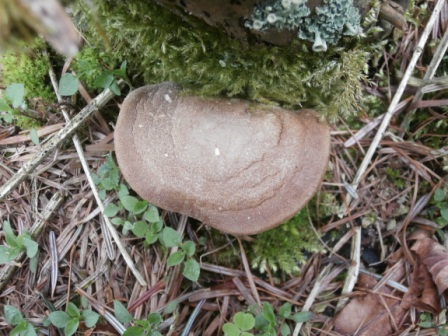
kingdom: Fungi
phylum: Basidiomycota
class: Agaricomycetes
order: Polyporales
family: Polyporaceae
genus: Lentinus
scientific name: Lentinus substrictus
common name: forårs-stilkporesvamp
